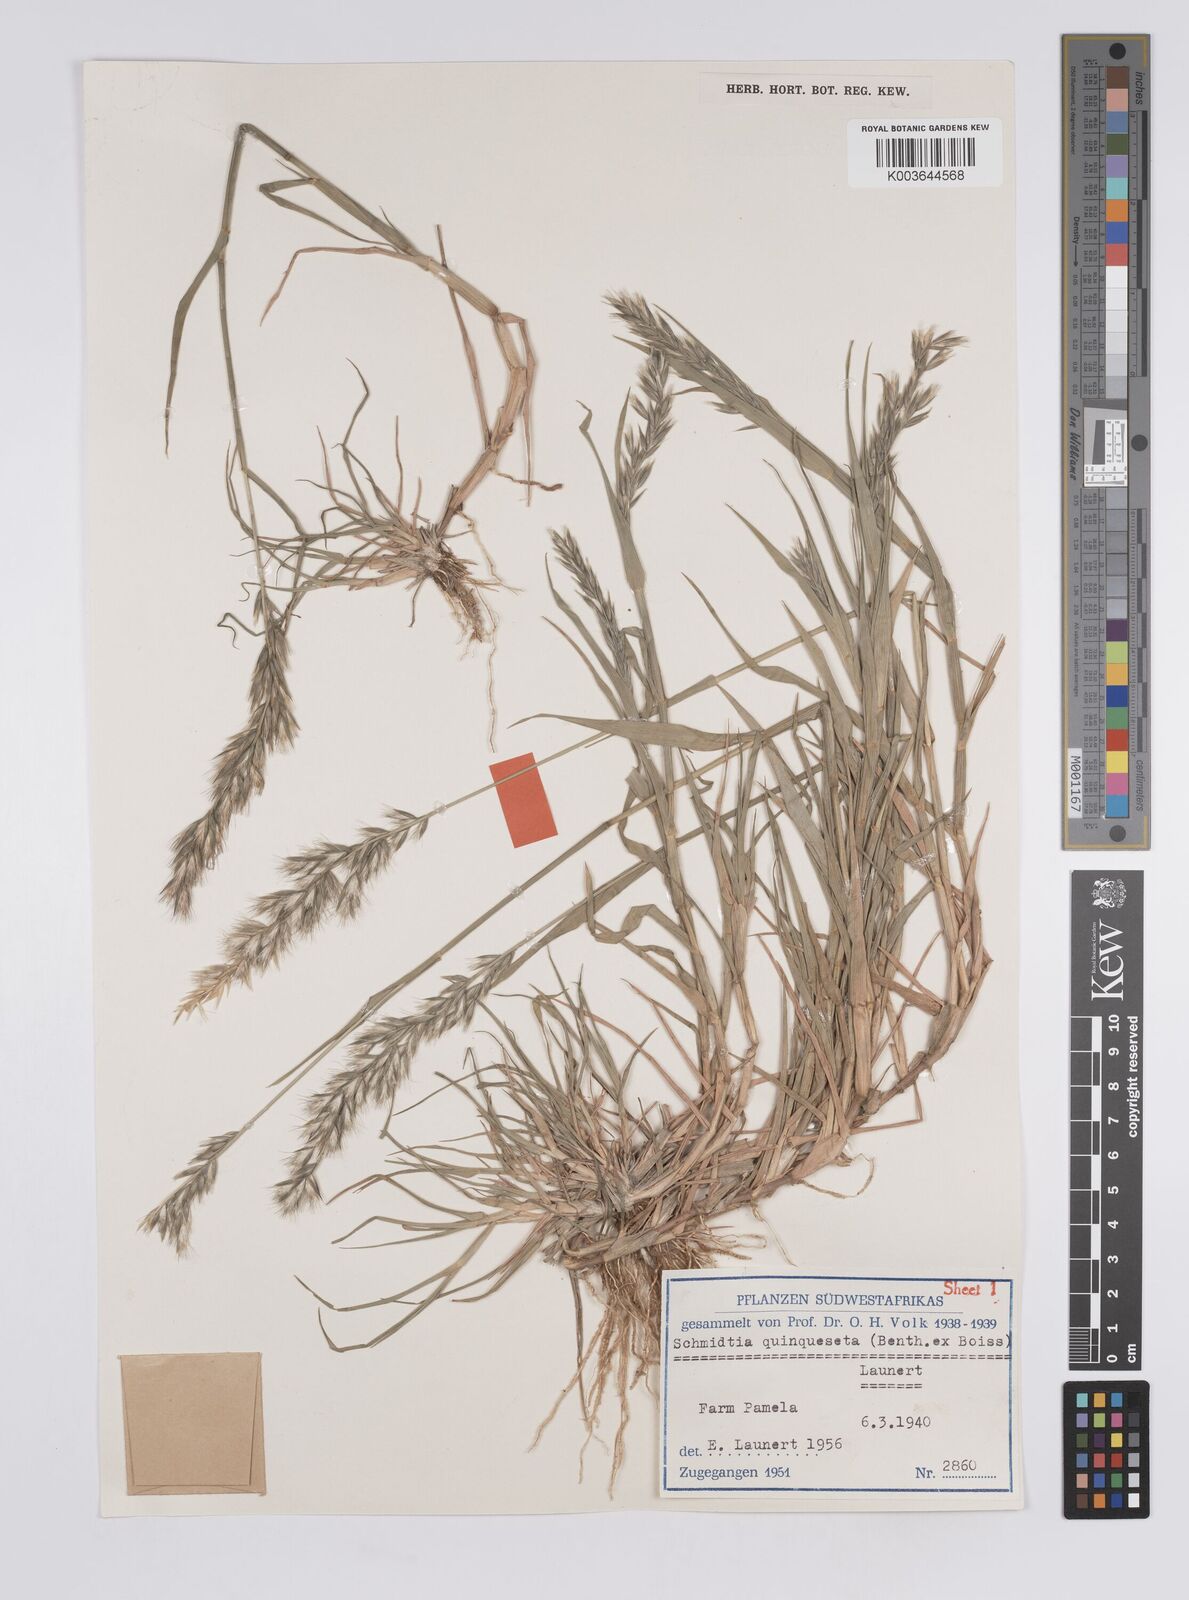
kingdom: Plantae
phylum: Tracheophyta
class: Liliopsida
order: Poales
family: Poaceae
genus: Schmidtia
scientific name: Schmidtia kalahariensis
